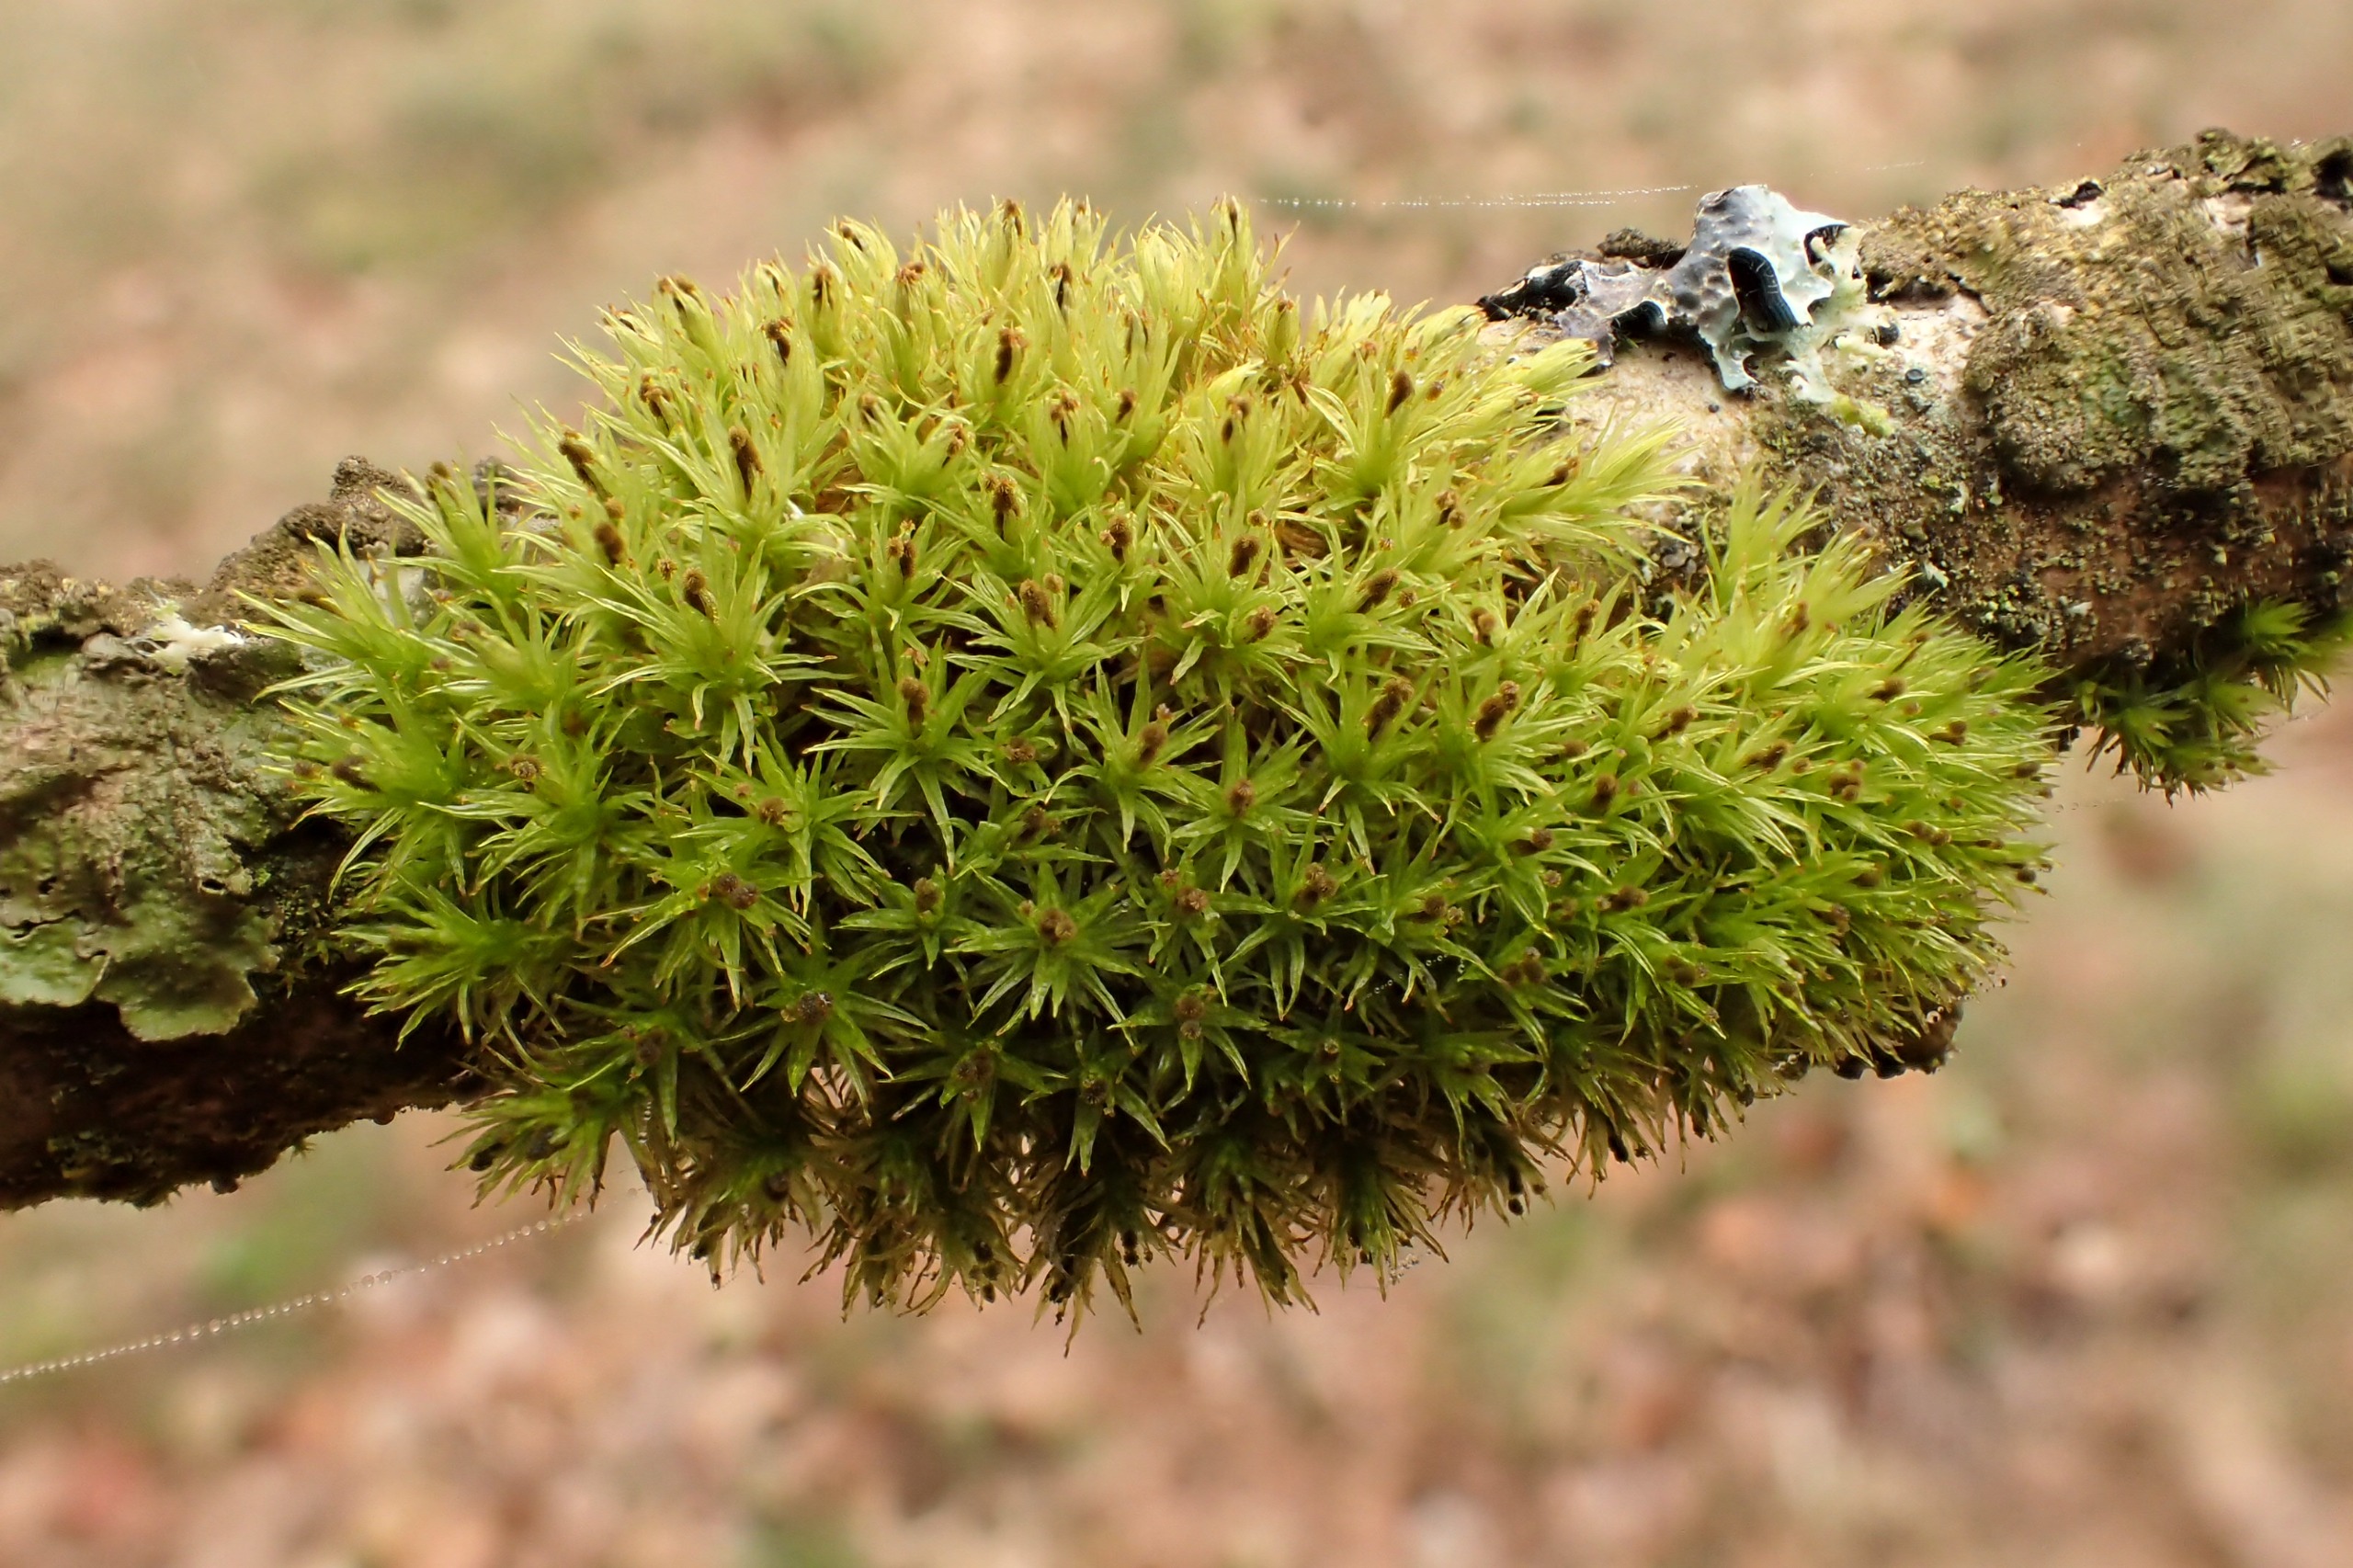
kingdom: Plantae
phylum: Bryophyta
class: Bryopsida
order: Orthotrichales
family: Orthotrichaceae
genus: Plenogemma
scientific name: Plenogemma phyllantha
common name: Stor låddenhætte
